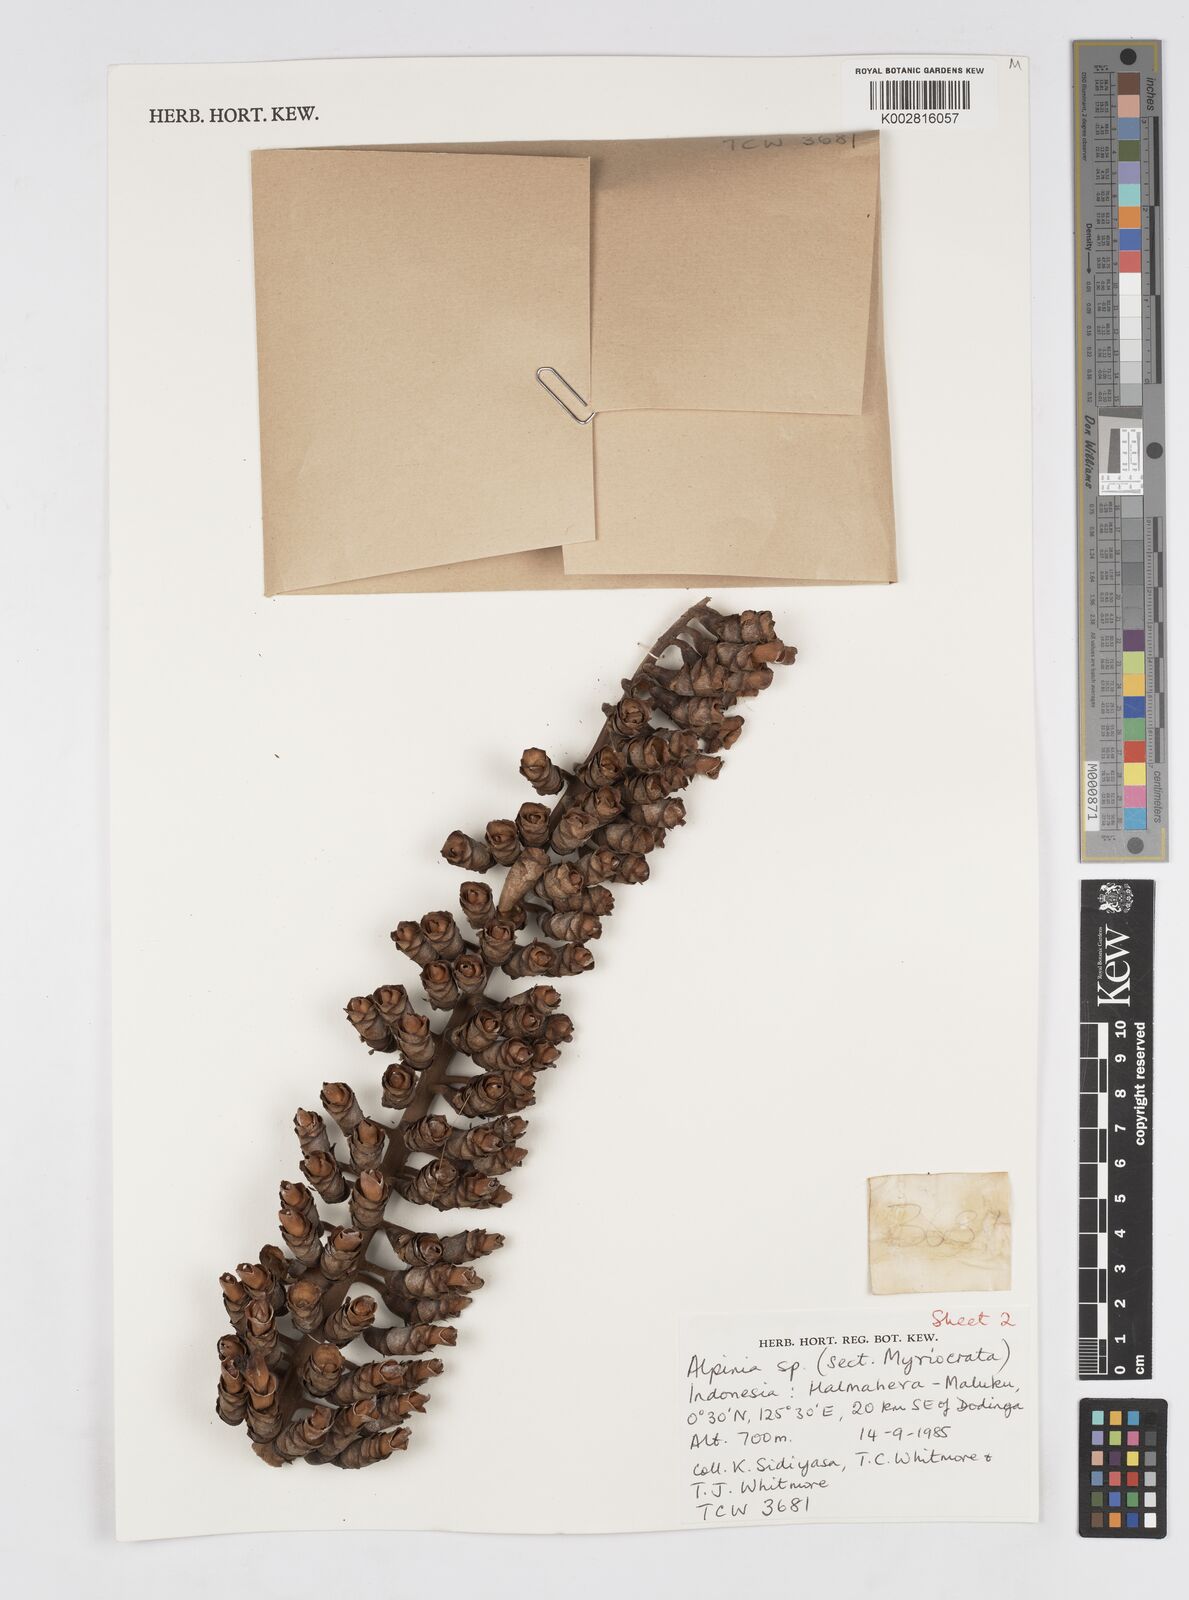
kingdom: Plantae
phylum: Tracheophyta
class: Liliopsida
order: Zingiberales
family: Zingiberaceae
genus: Alpinia
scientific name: Alpinia
